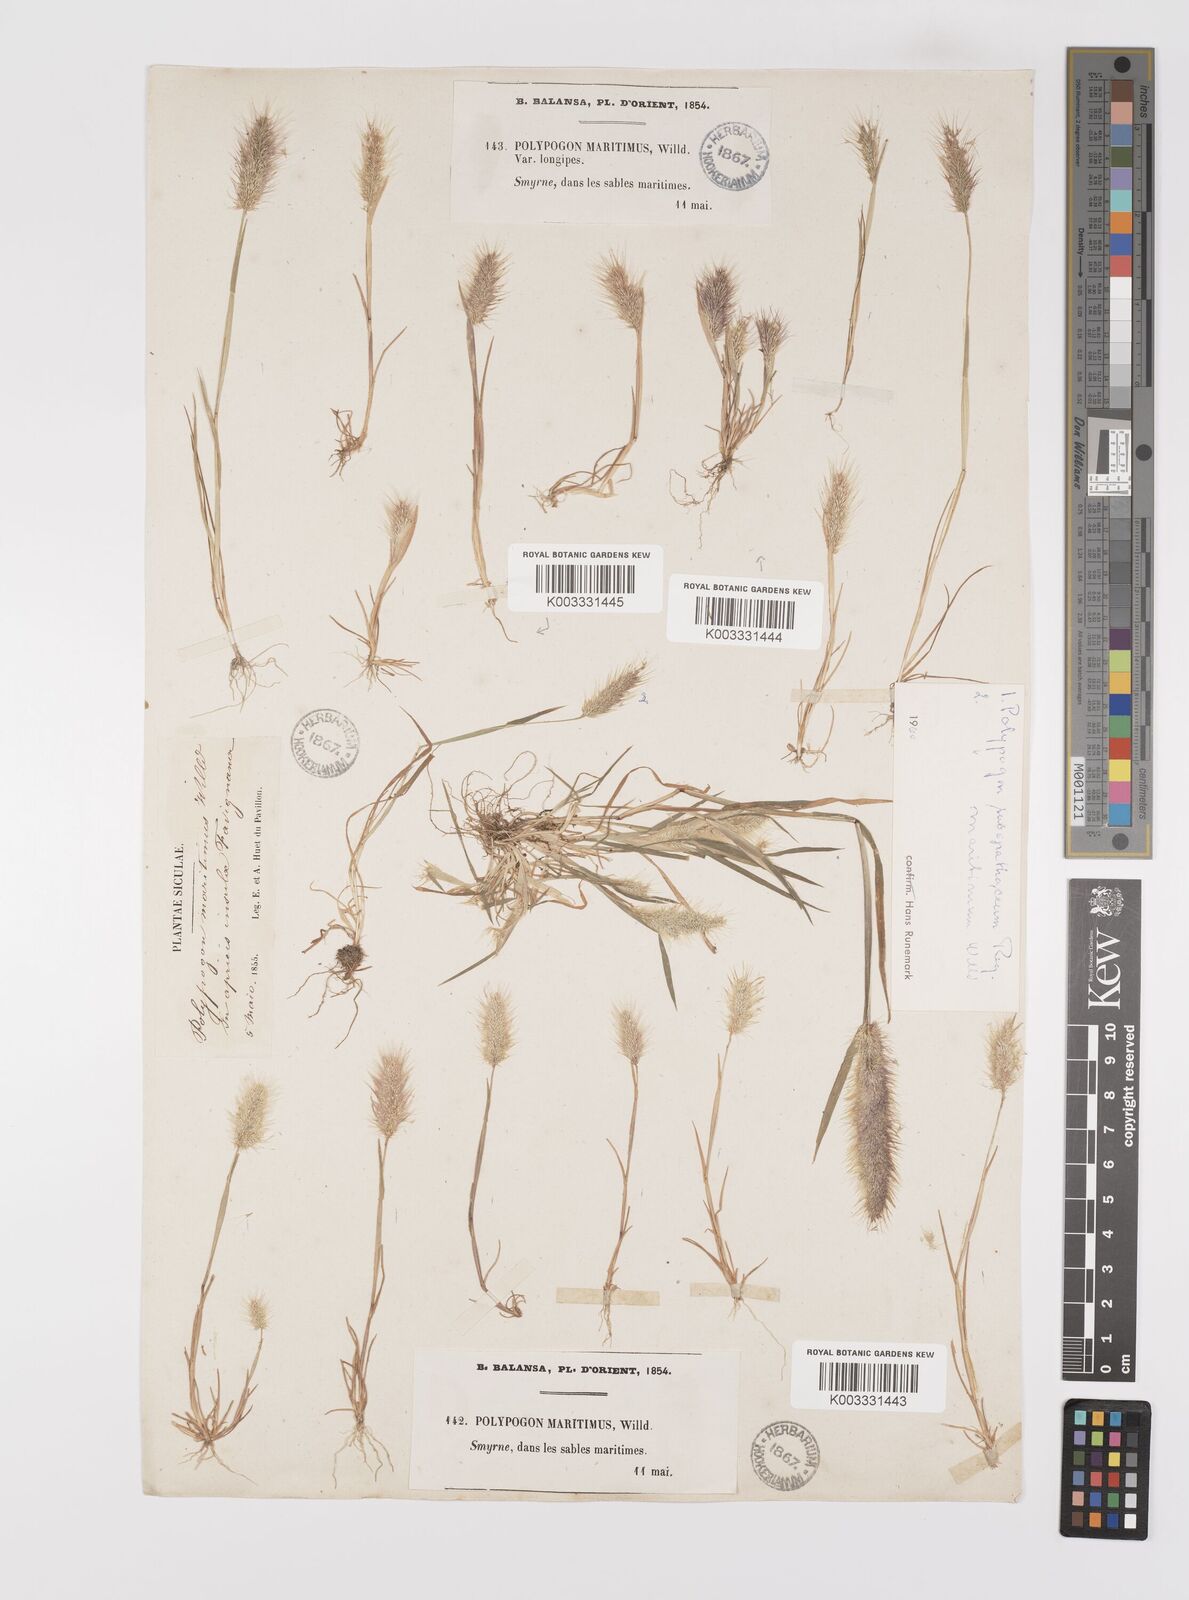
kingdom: Plantae
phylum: Tracheophyta
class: Liliopsida
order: Poales
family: Poaceae
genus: Polypogon
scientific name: Polypogon maritimus
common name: Mediterranean rabbitsfoot grass
